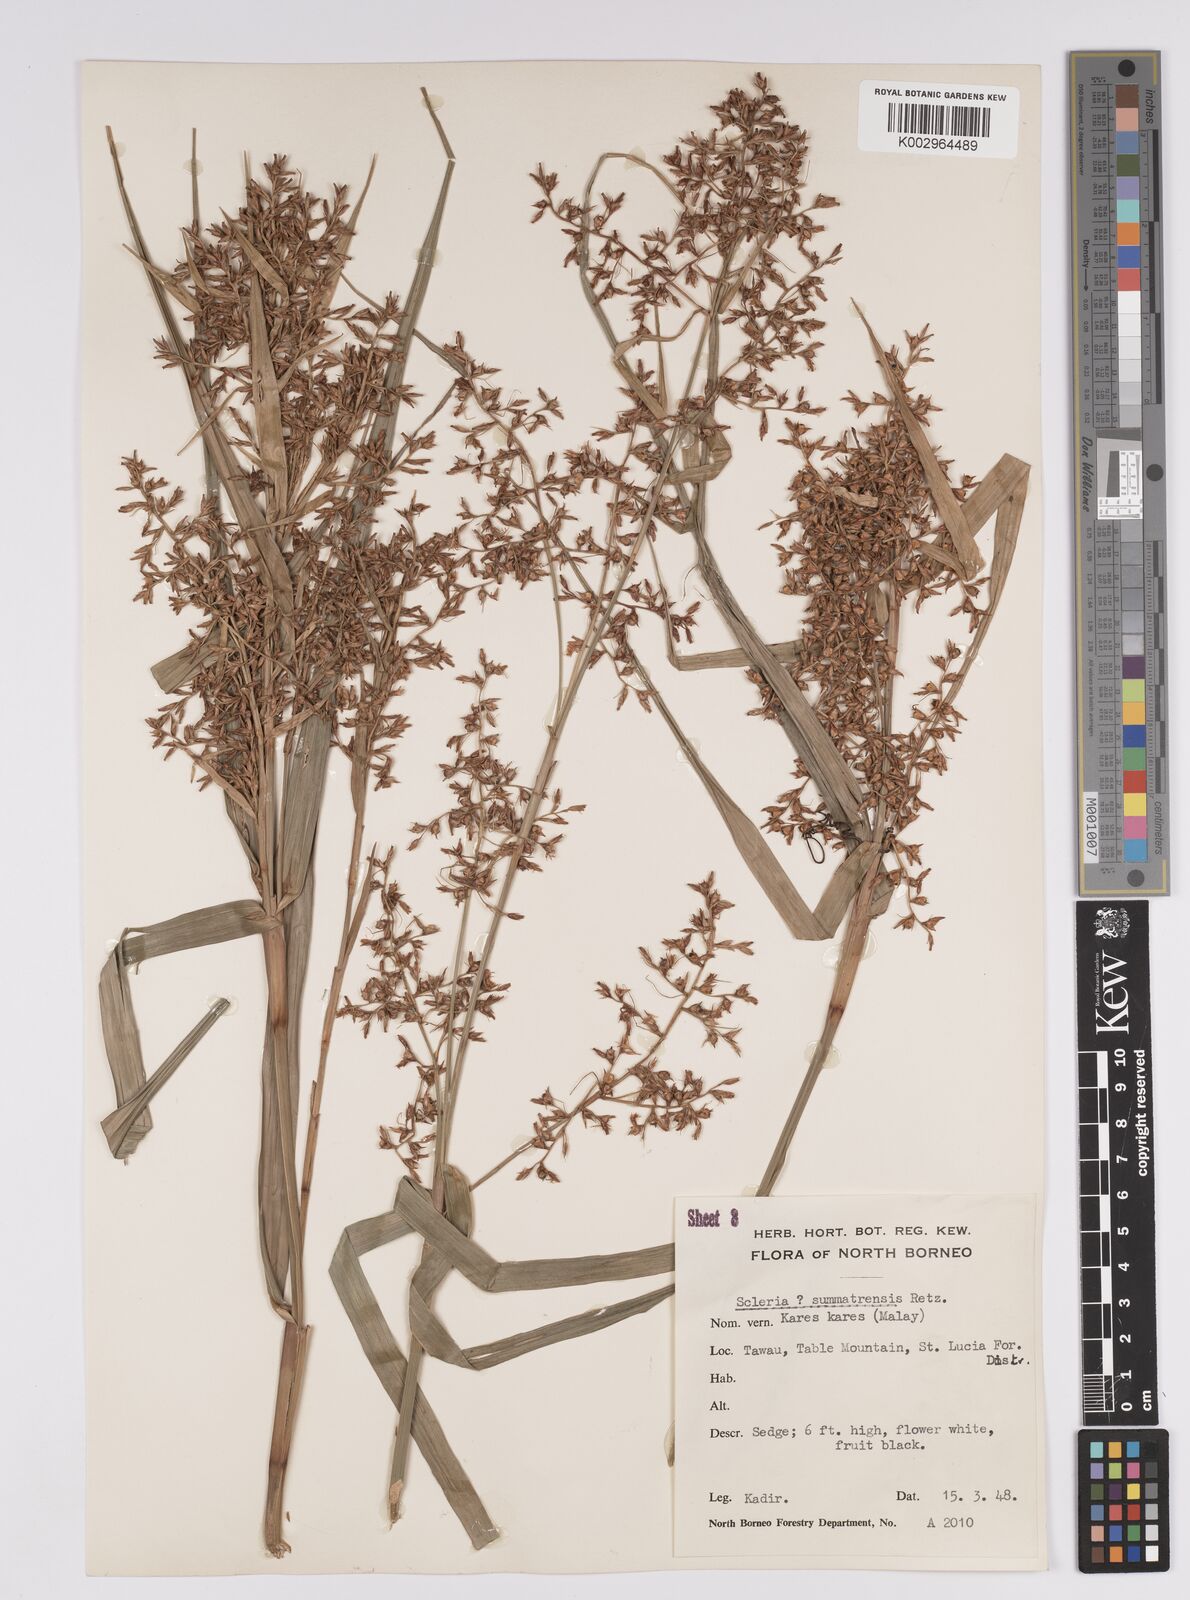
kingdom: Plantae
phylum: Tracheophyta
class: Liliopsida
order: Poales
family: Cyperaceae
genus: Scleria
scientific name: Scleria sumatrensis
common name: Sumatran scleria
